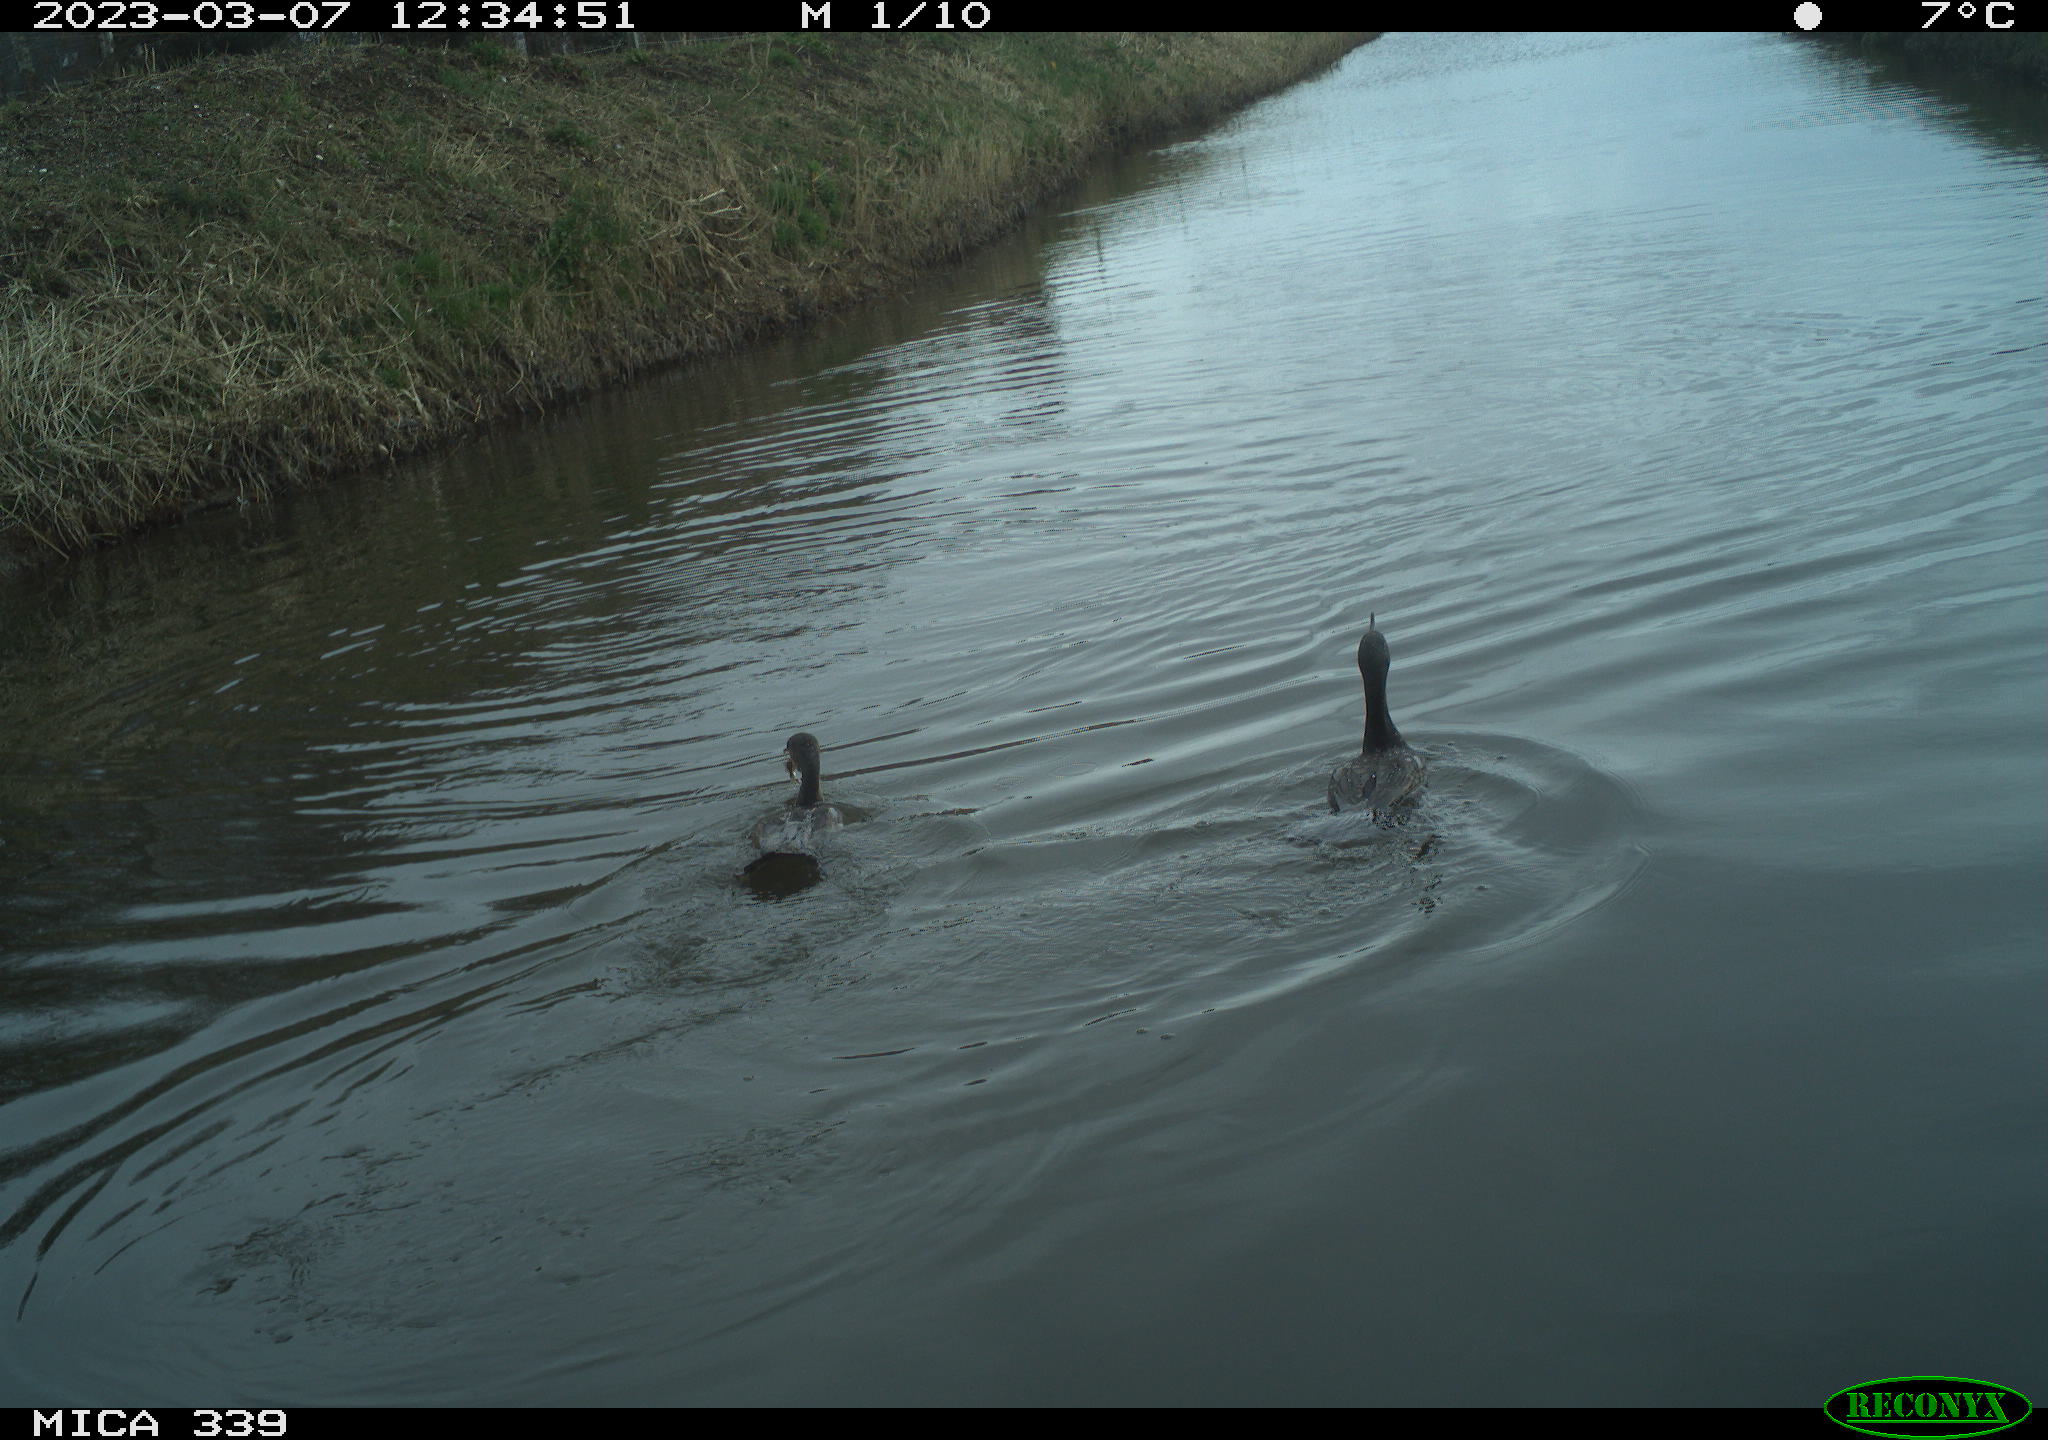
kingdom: Animalia
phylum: Chordata
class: Aves
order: Suliformes
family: Phalacrocoracidae
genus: Phalacrocorax
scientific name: Phalacrocorax carbo
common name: Great cormorant
